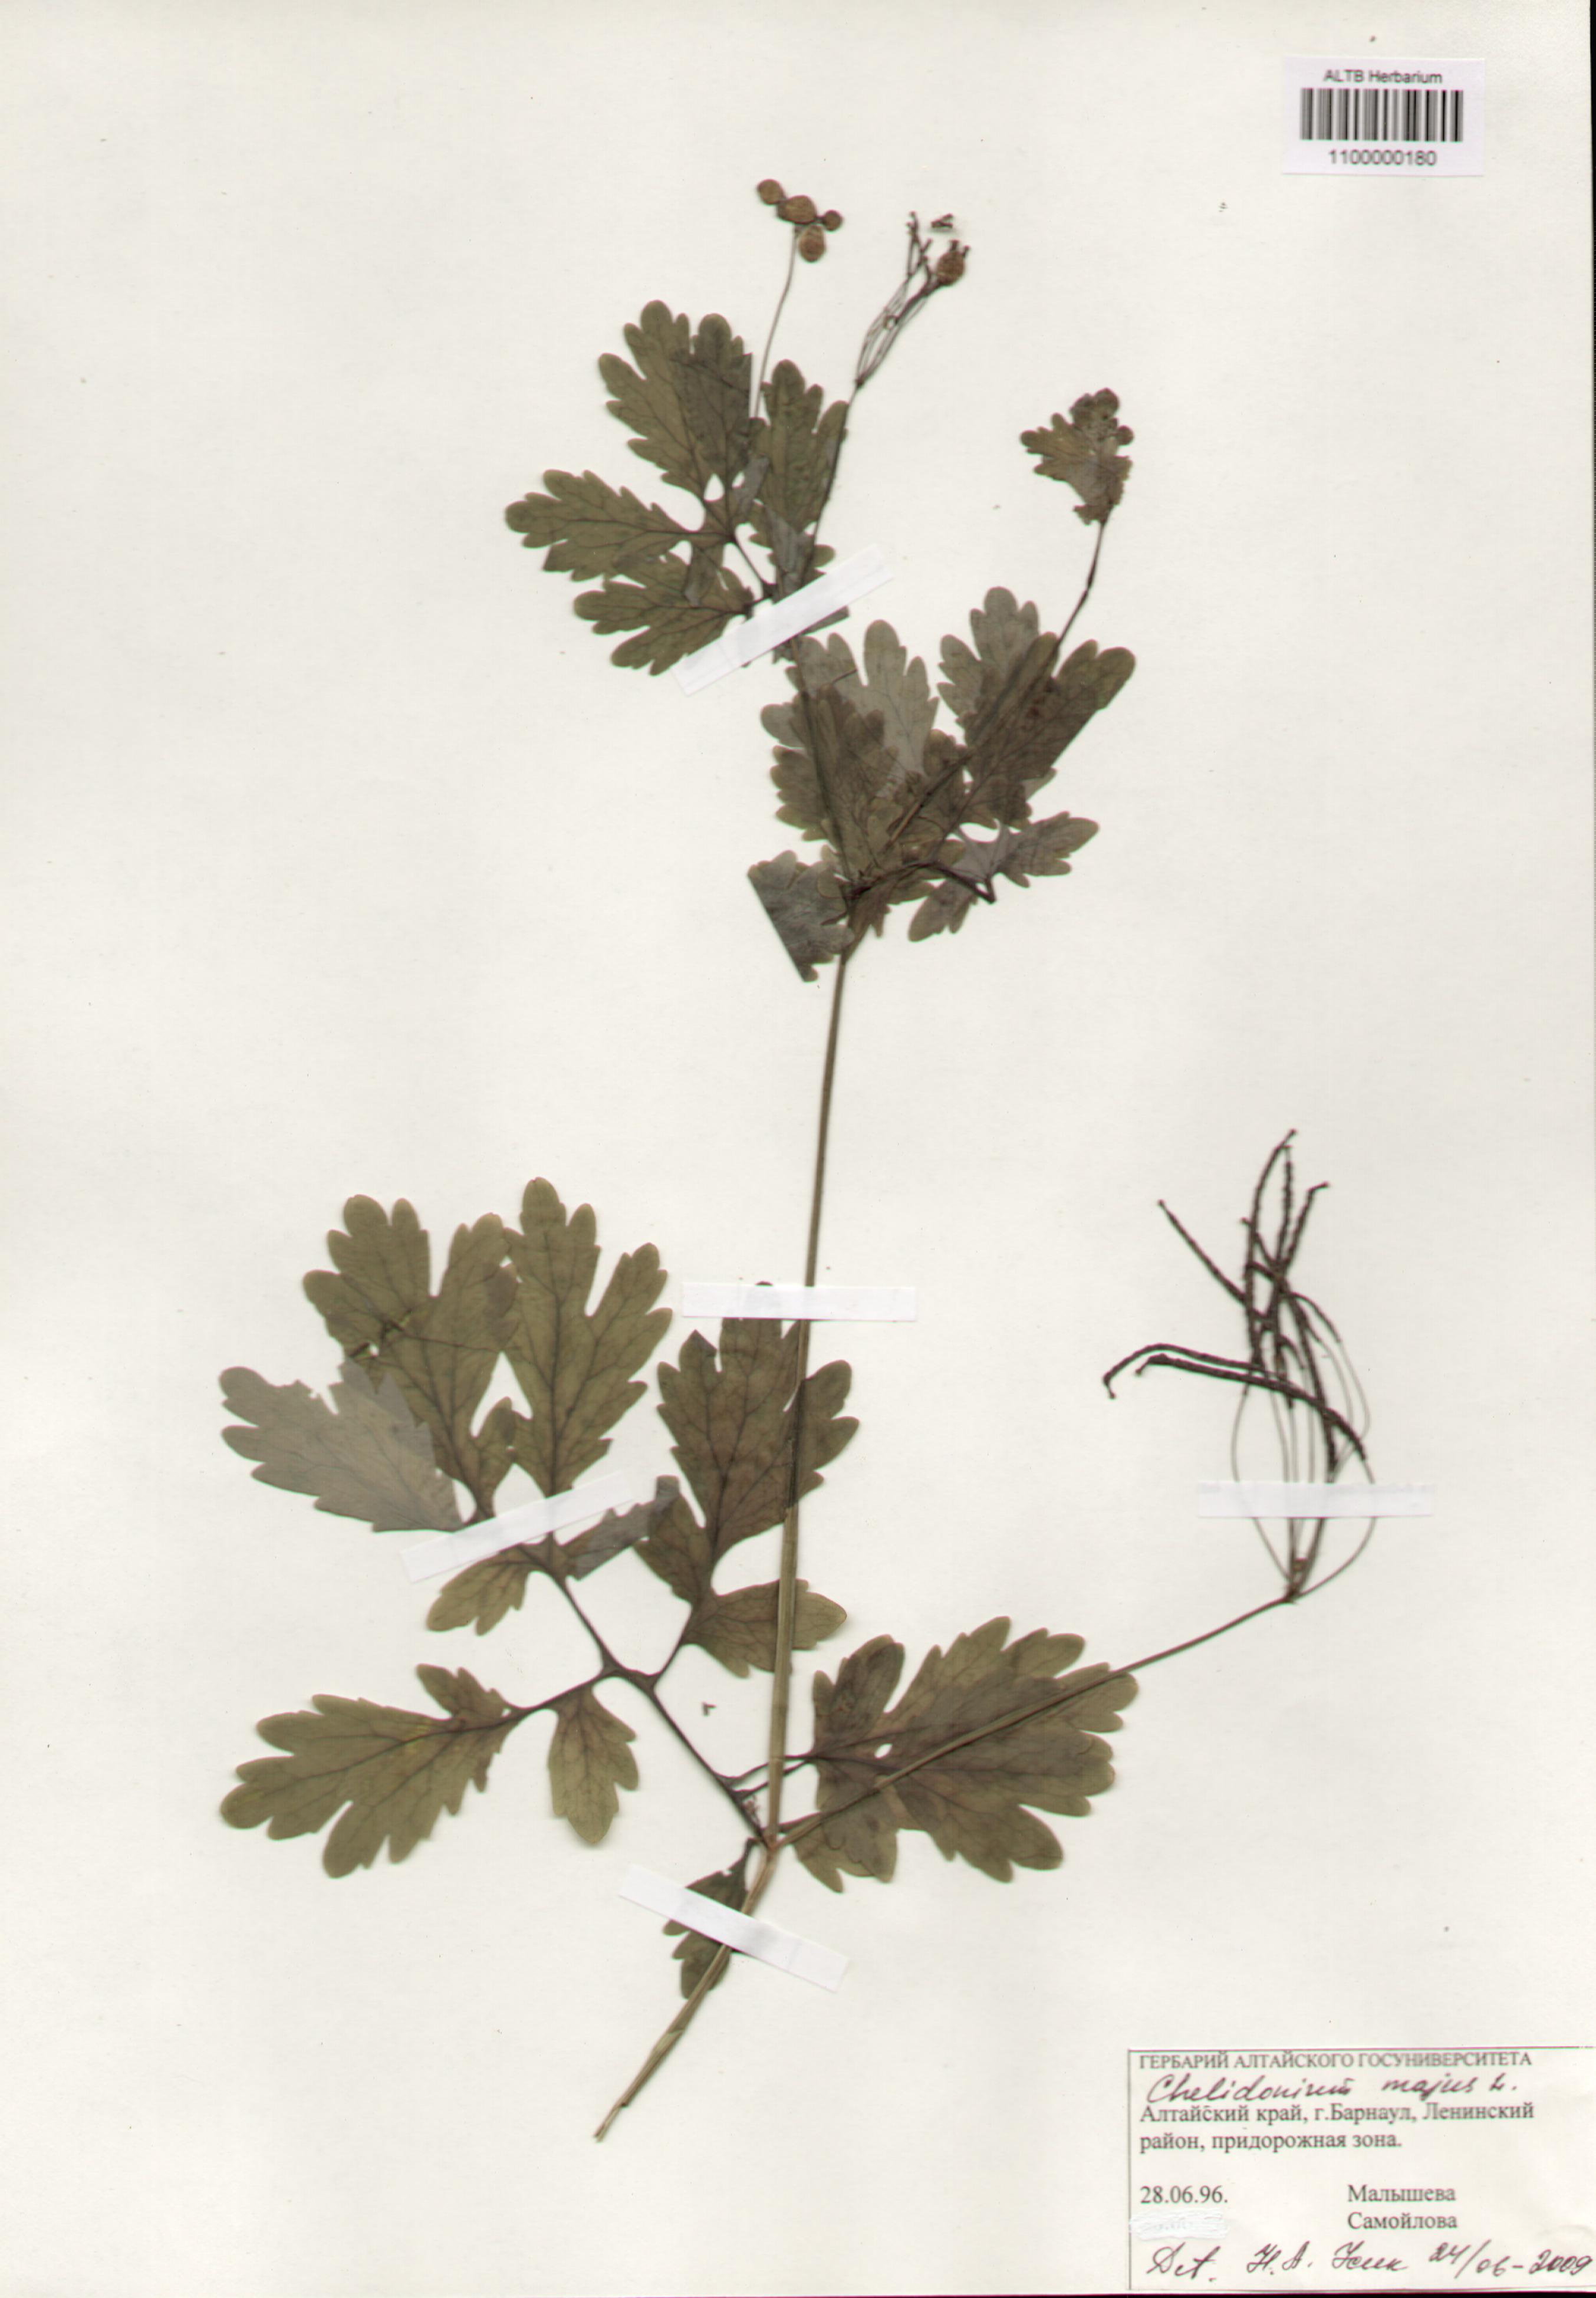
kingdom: Plantae
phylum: Tracheophyta
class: Magnoliopsida
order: Ranunculales
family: Papaveraceae
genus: Chelidonium
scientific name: Chelidonium majus
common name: Greater celandine
